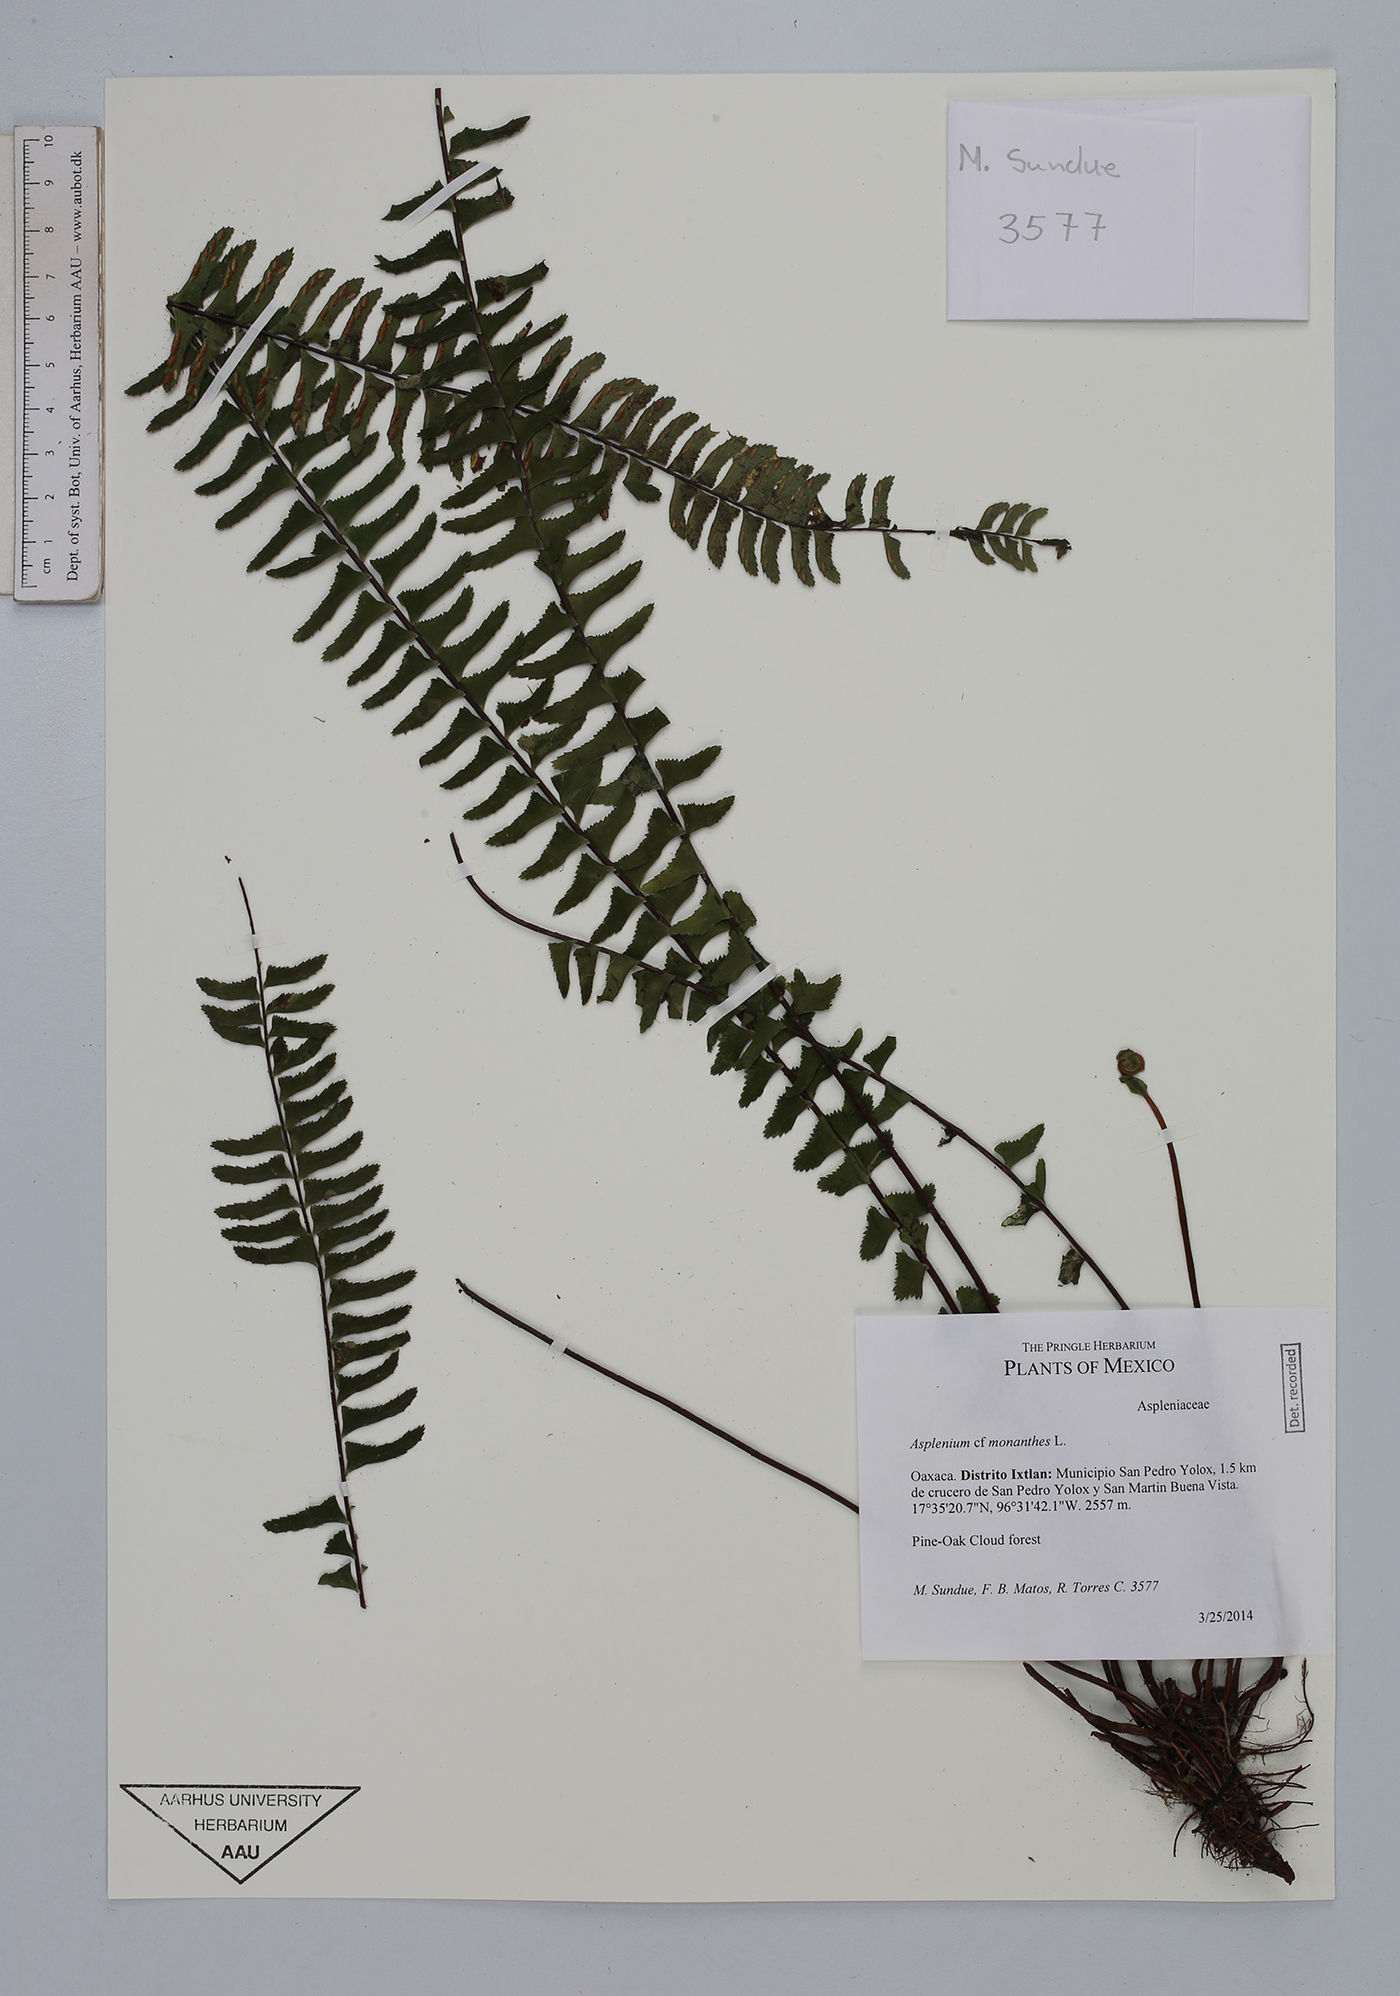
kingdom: Plantae
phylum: Tracheophyta
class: Polypodiopsida
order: Polypodiales
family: Aspleniaceae
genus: Asplenium
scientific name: Asplenium monanthes
